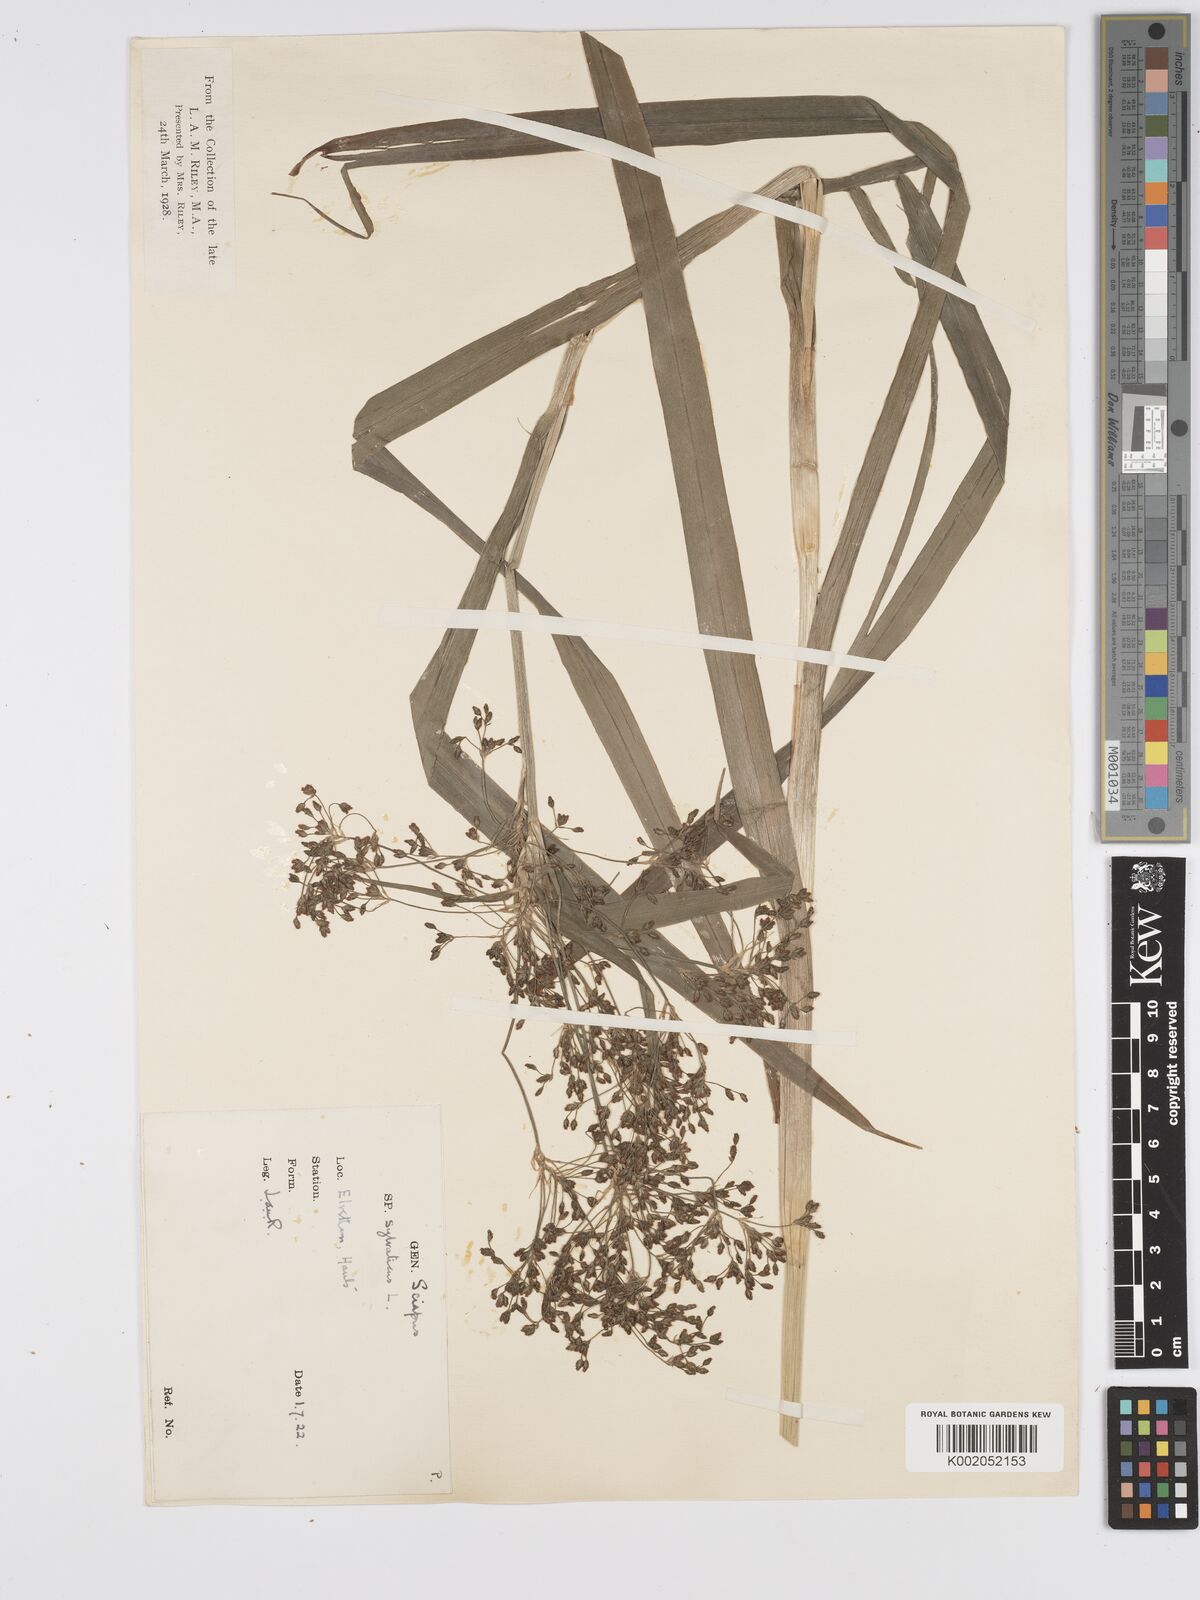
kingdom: Plantae
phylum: Tracheophyta
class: Liliopsida
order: Poales
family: Cyperaceae
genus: Scirpus
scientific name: Scirpus sylvaticus
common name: Wood club-rush
